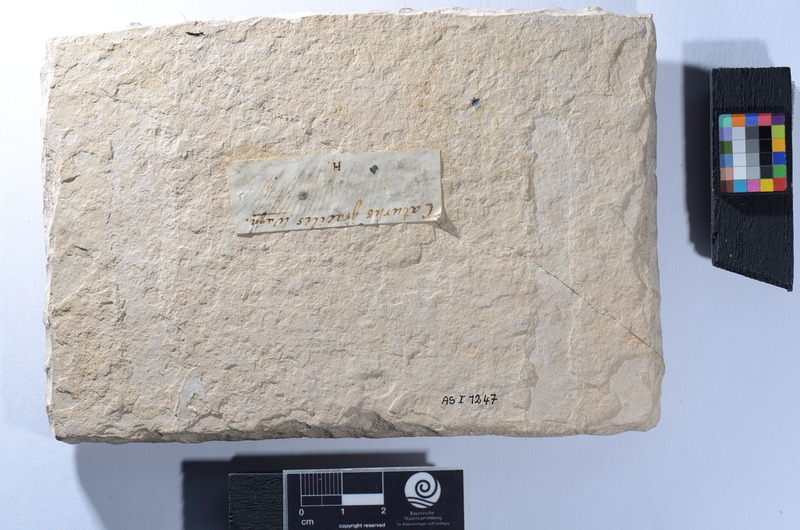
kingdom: Animalia
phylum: Chordata
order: Amiiformes
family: Caturidae
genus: Caturus
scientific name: Caturus furcatus
